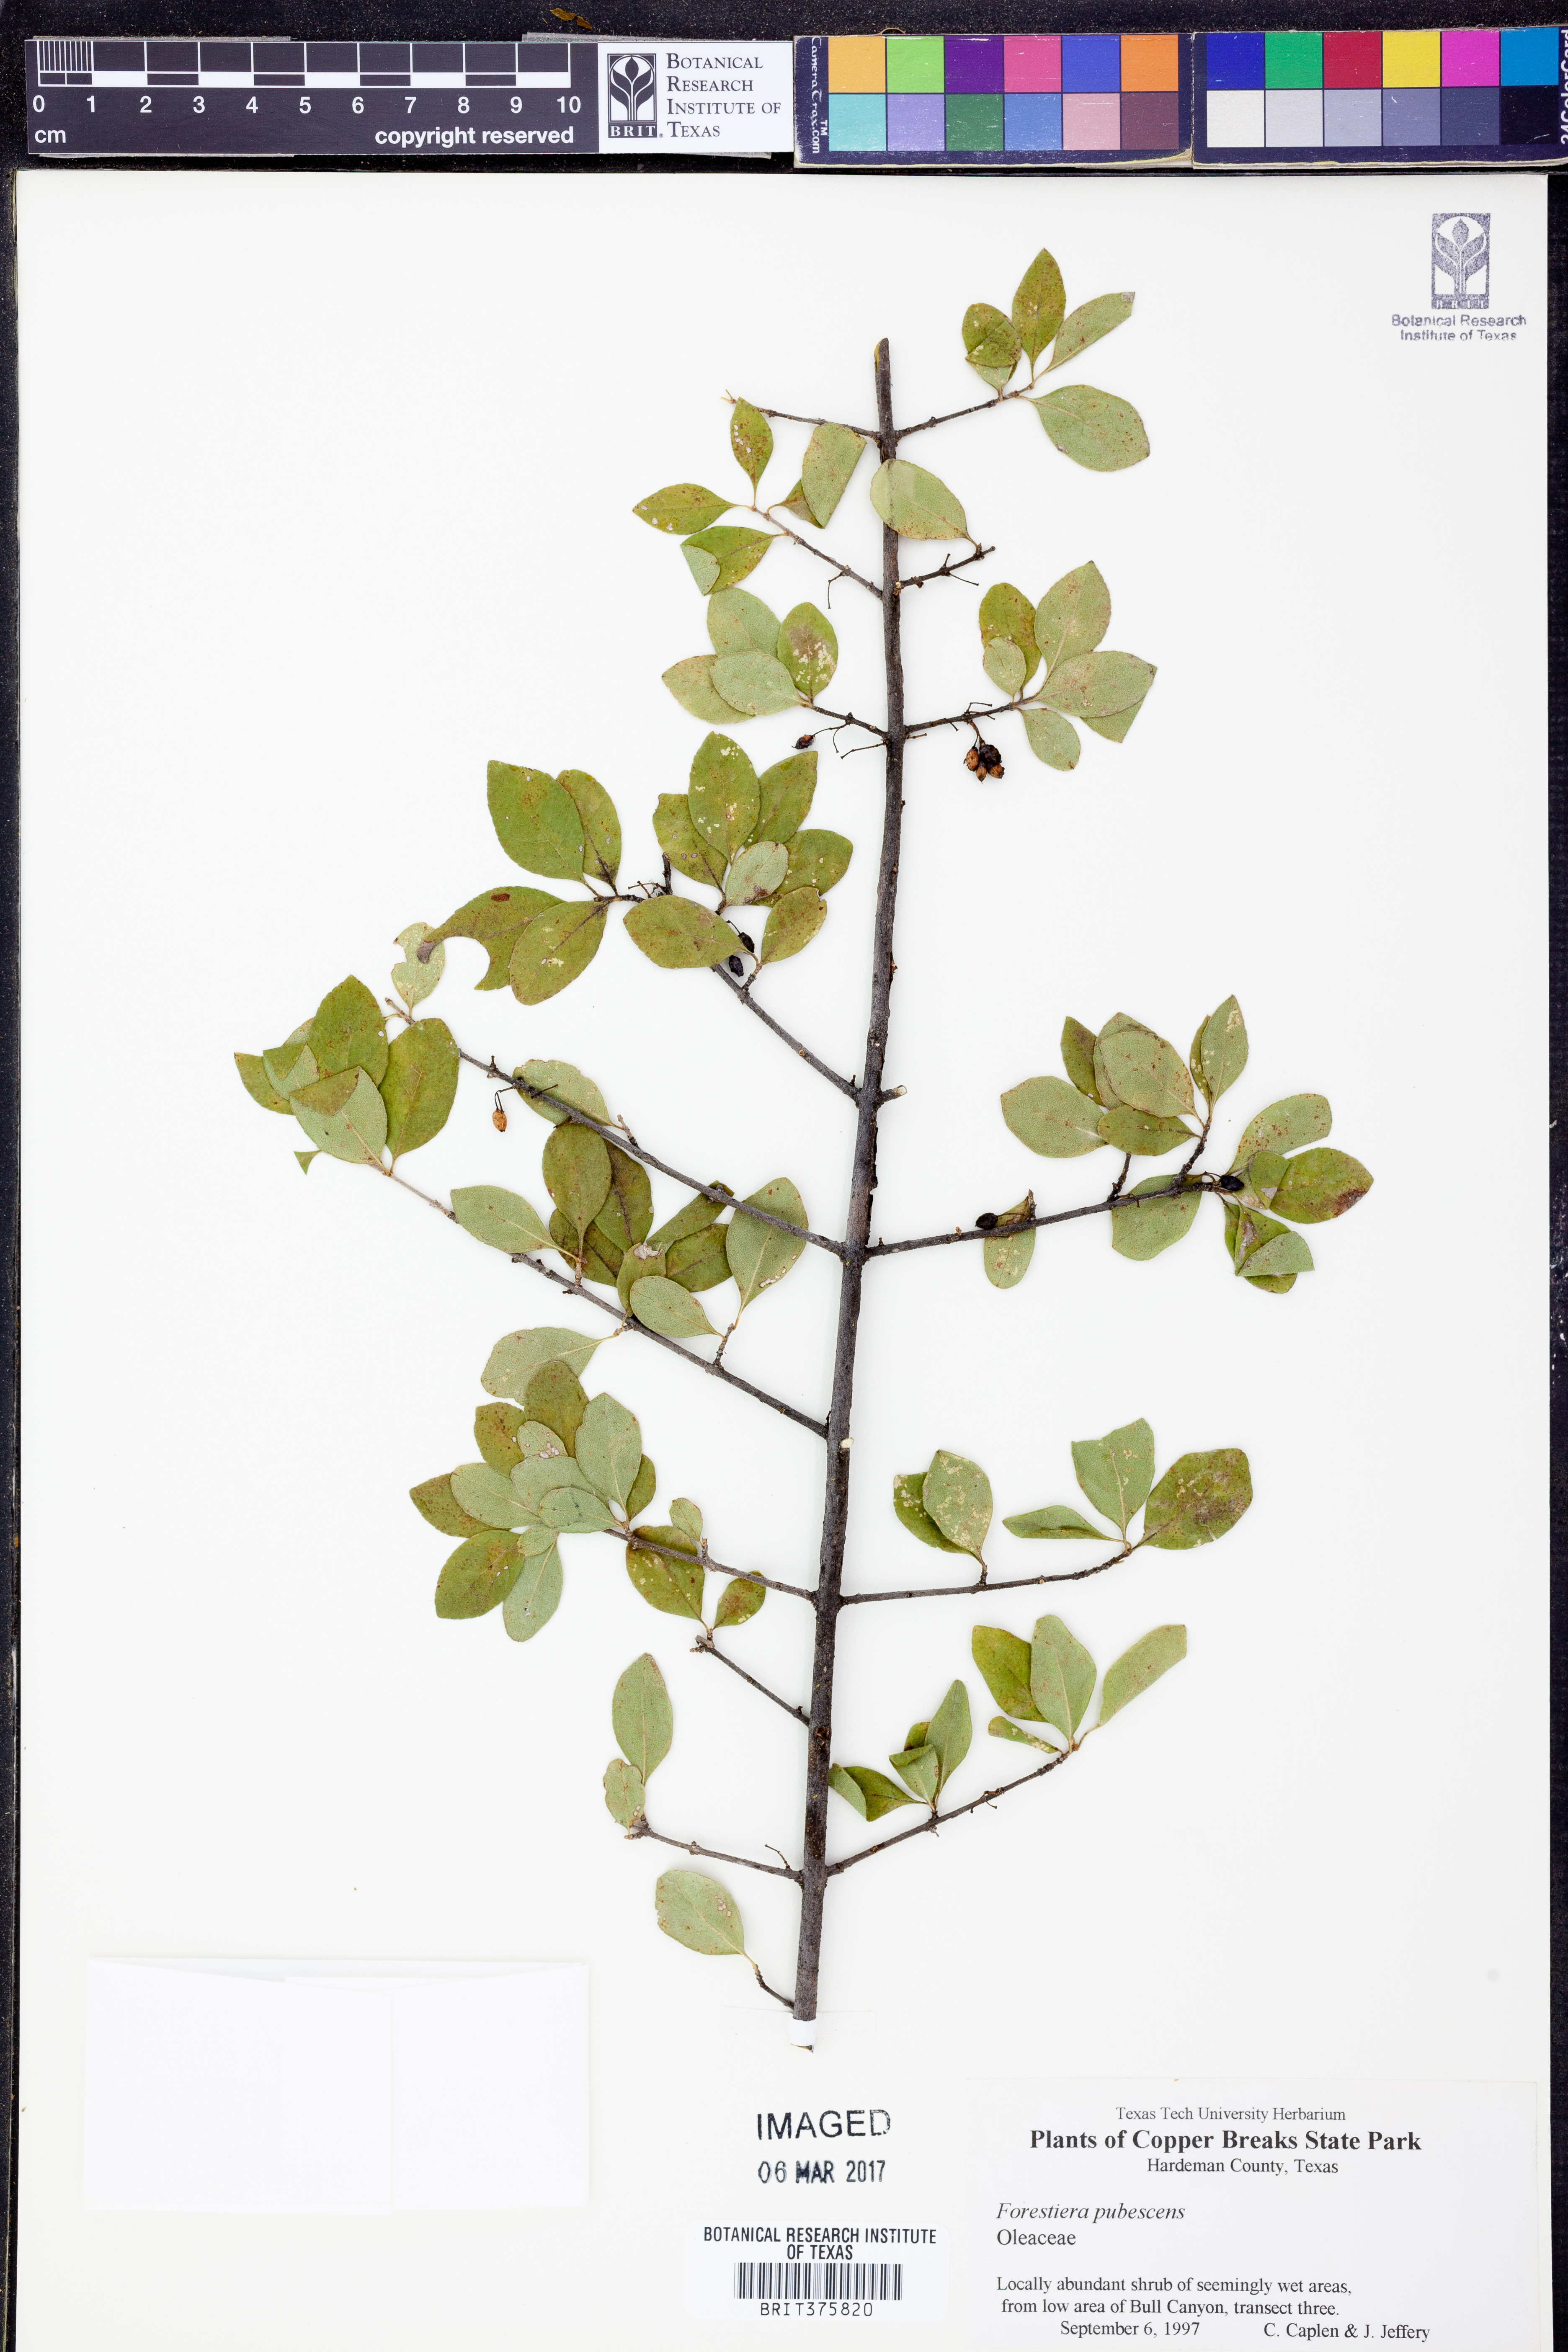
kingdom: Plantae
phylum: Tracheophyta
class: Magnoliopsida
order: Lamiales
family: Oleaceae
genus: Forestiera
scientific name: Forestiera pubescens
